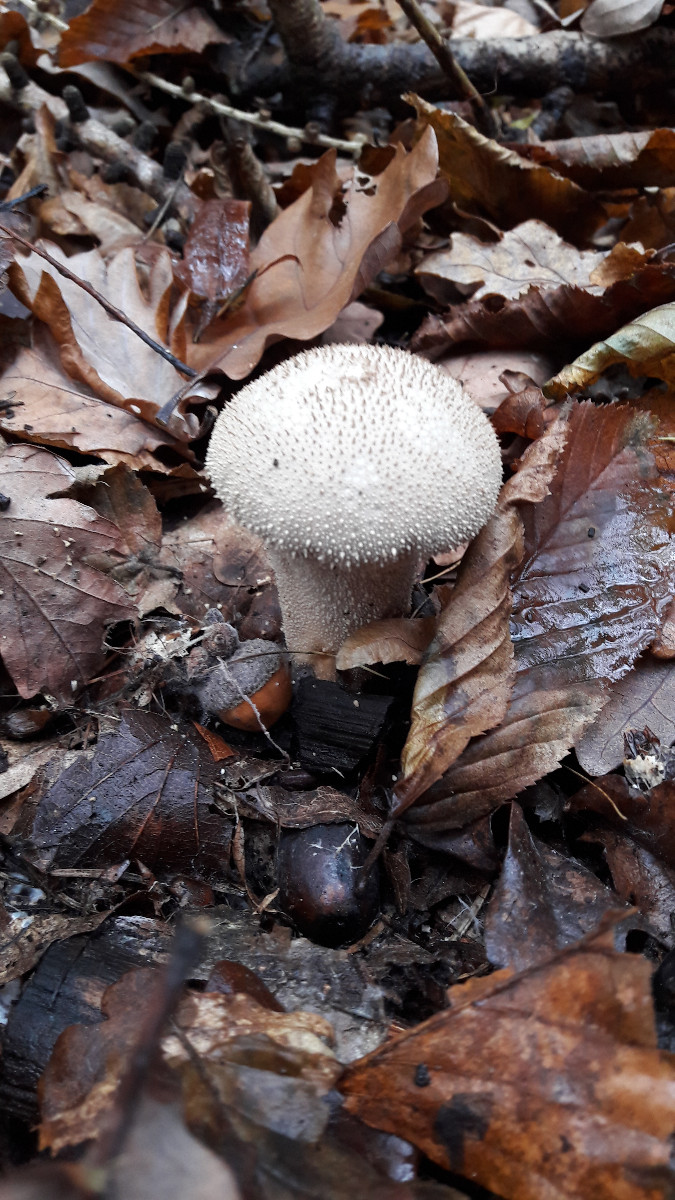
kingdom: Fungi
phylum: Basidiomycota
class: Agaricomycetes
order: Agaricales
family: Lycoperdaceae
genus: Lycoperdon
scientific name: Lycoperdon perlatum
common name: krystal-støvbold
